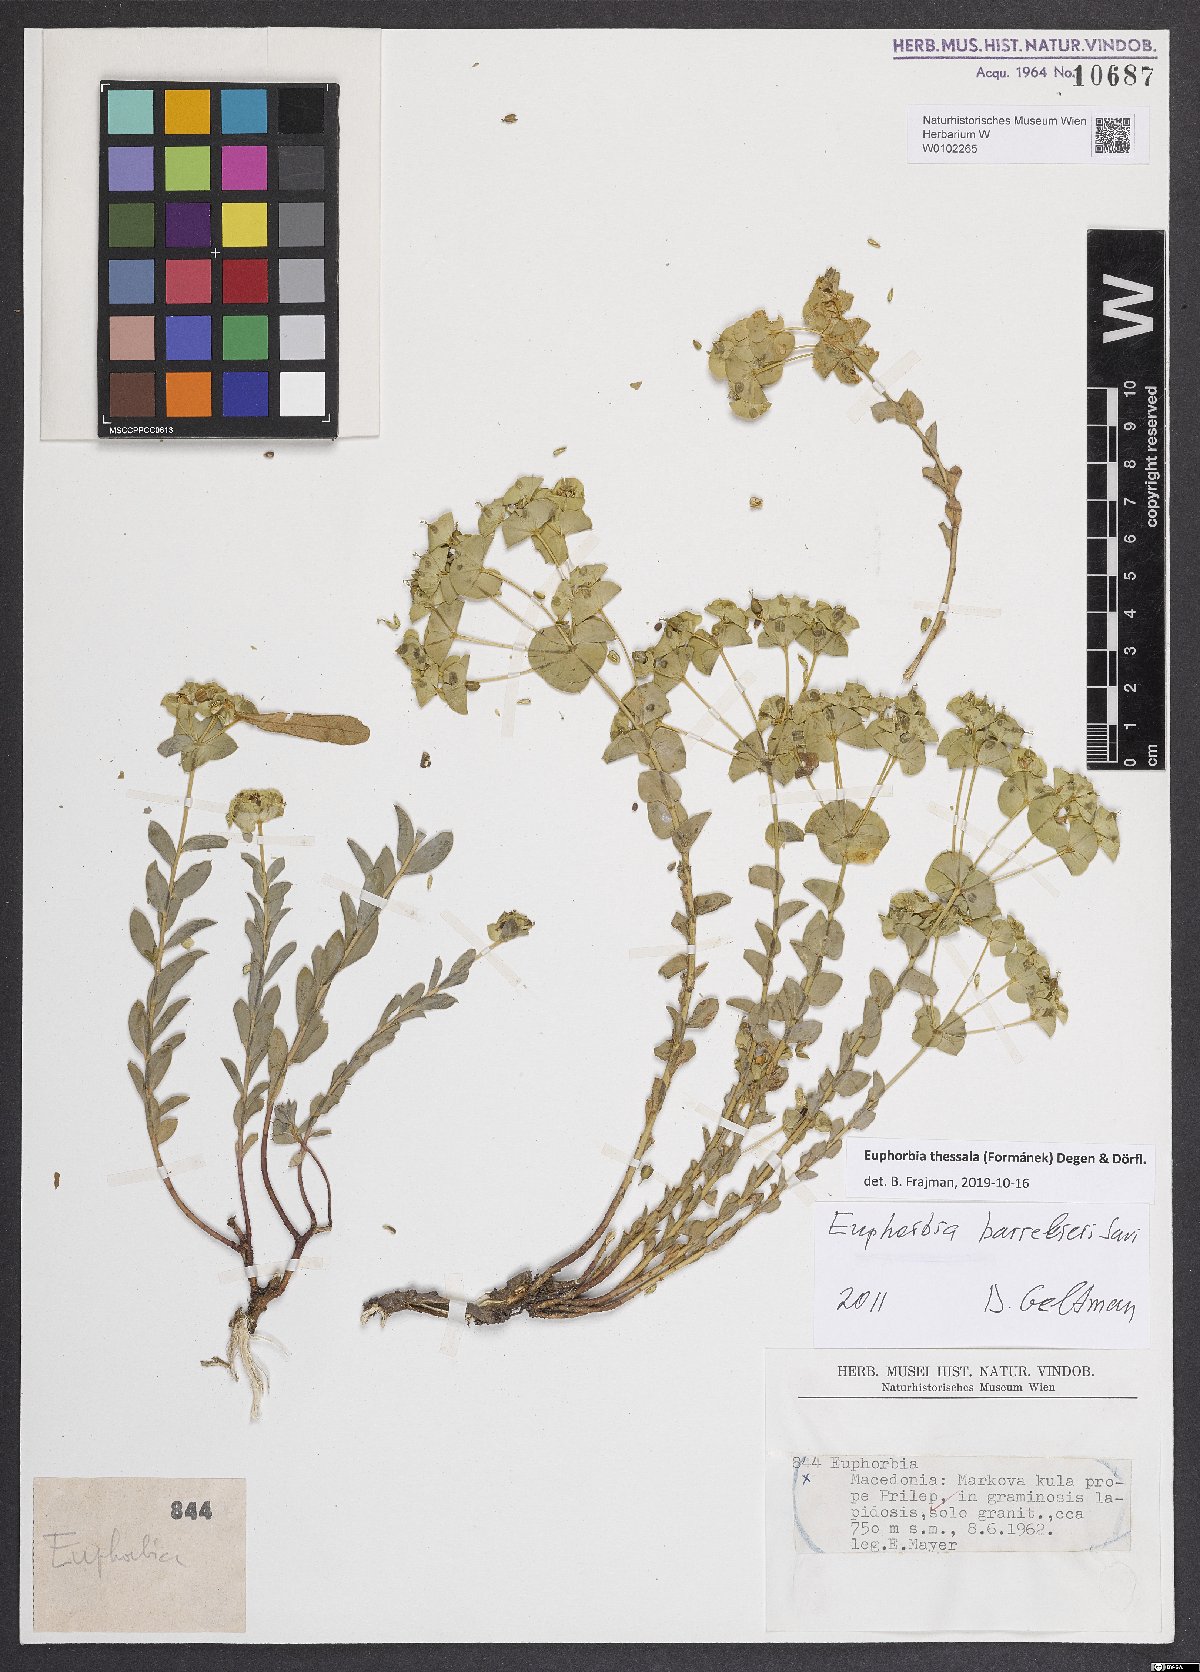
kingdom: Plantae
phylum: Tracheophyta
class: Magnoliopsida
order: Malpighiales
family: Euphorbiaceae
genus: Euphorbia
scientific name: Euphorbia barrelieri
